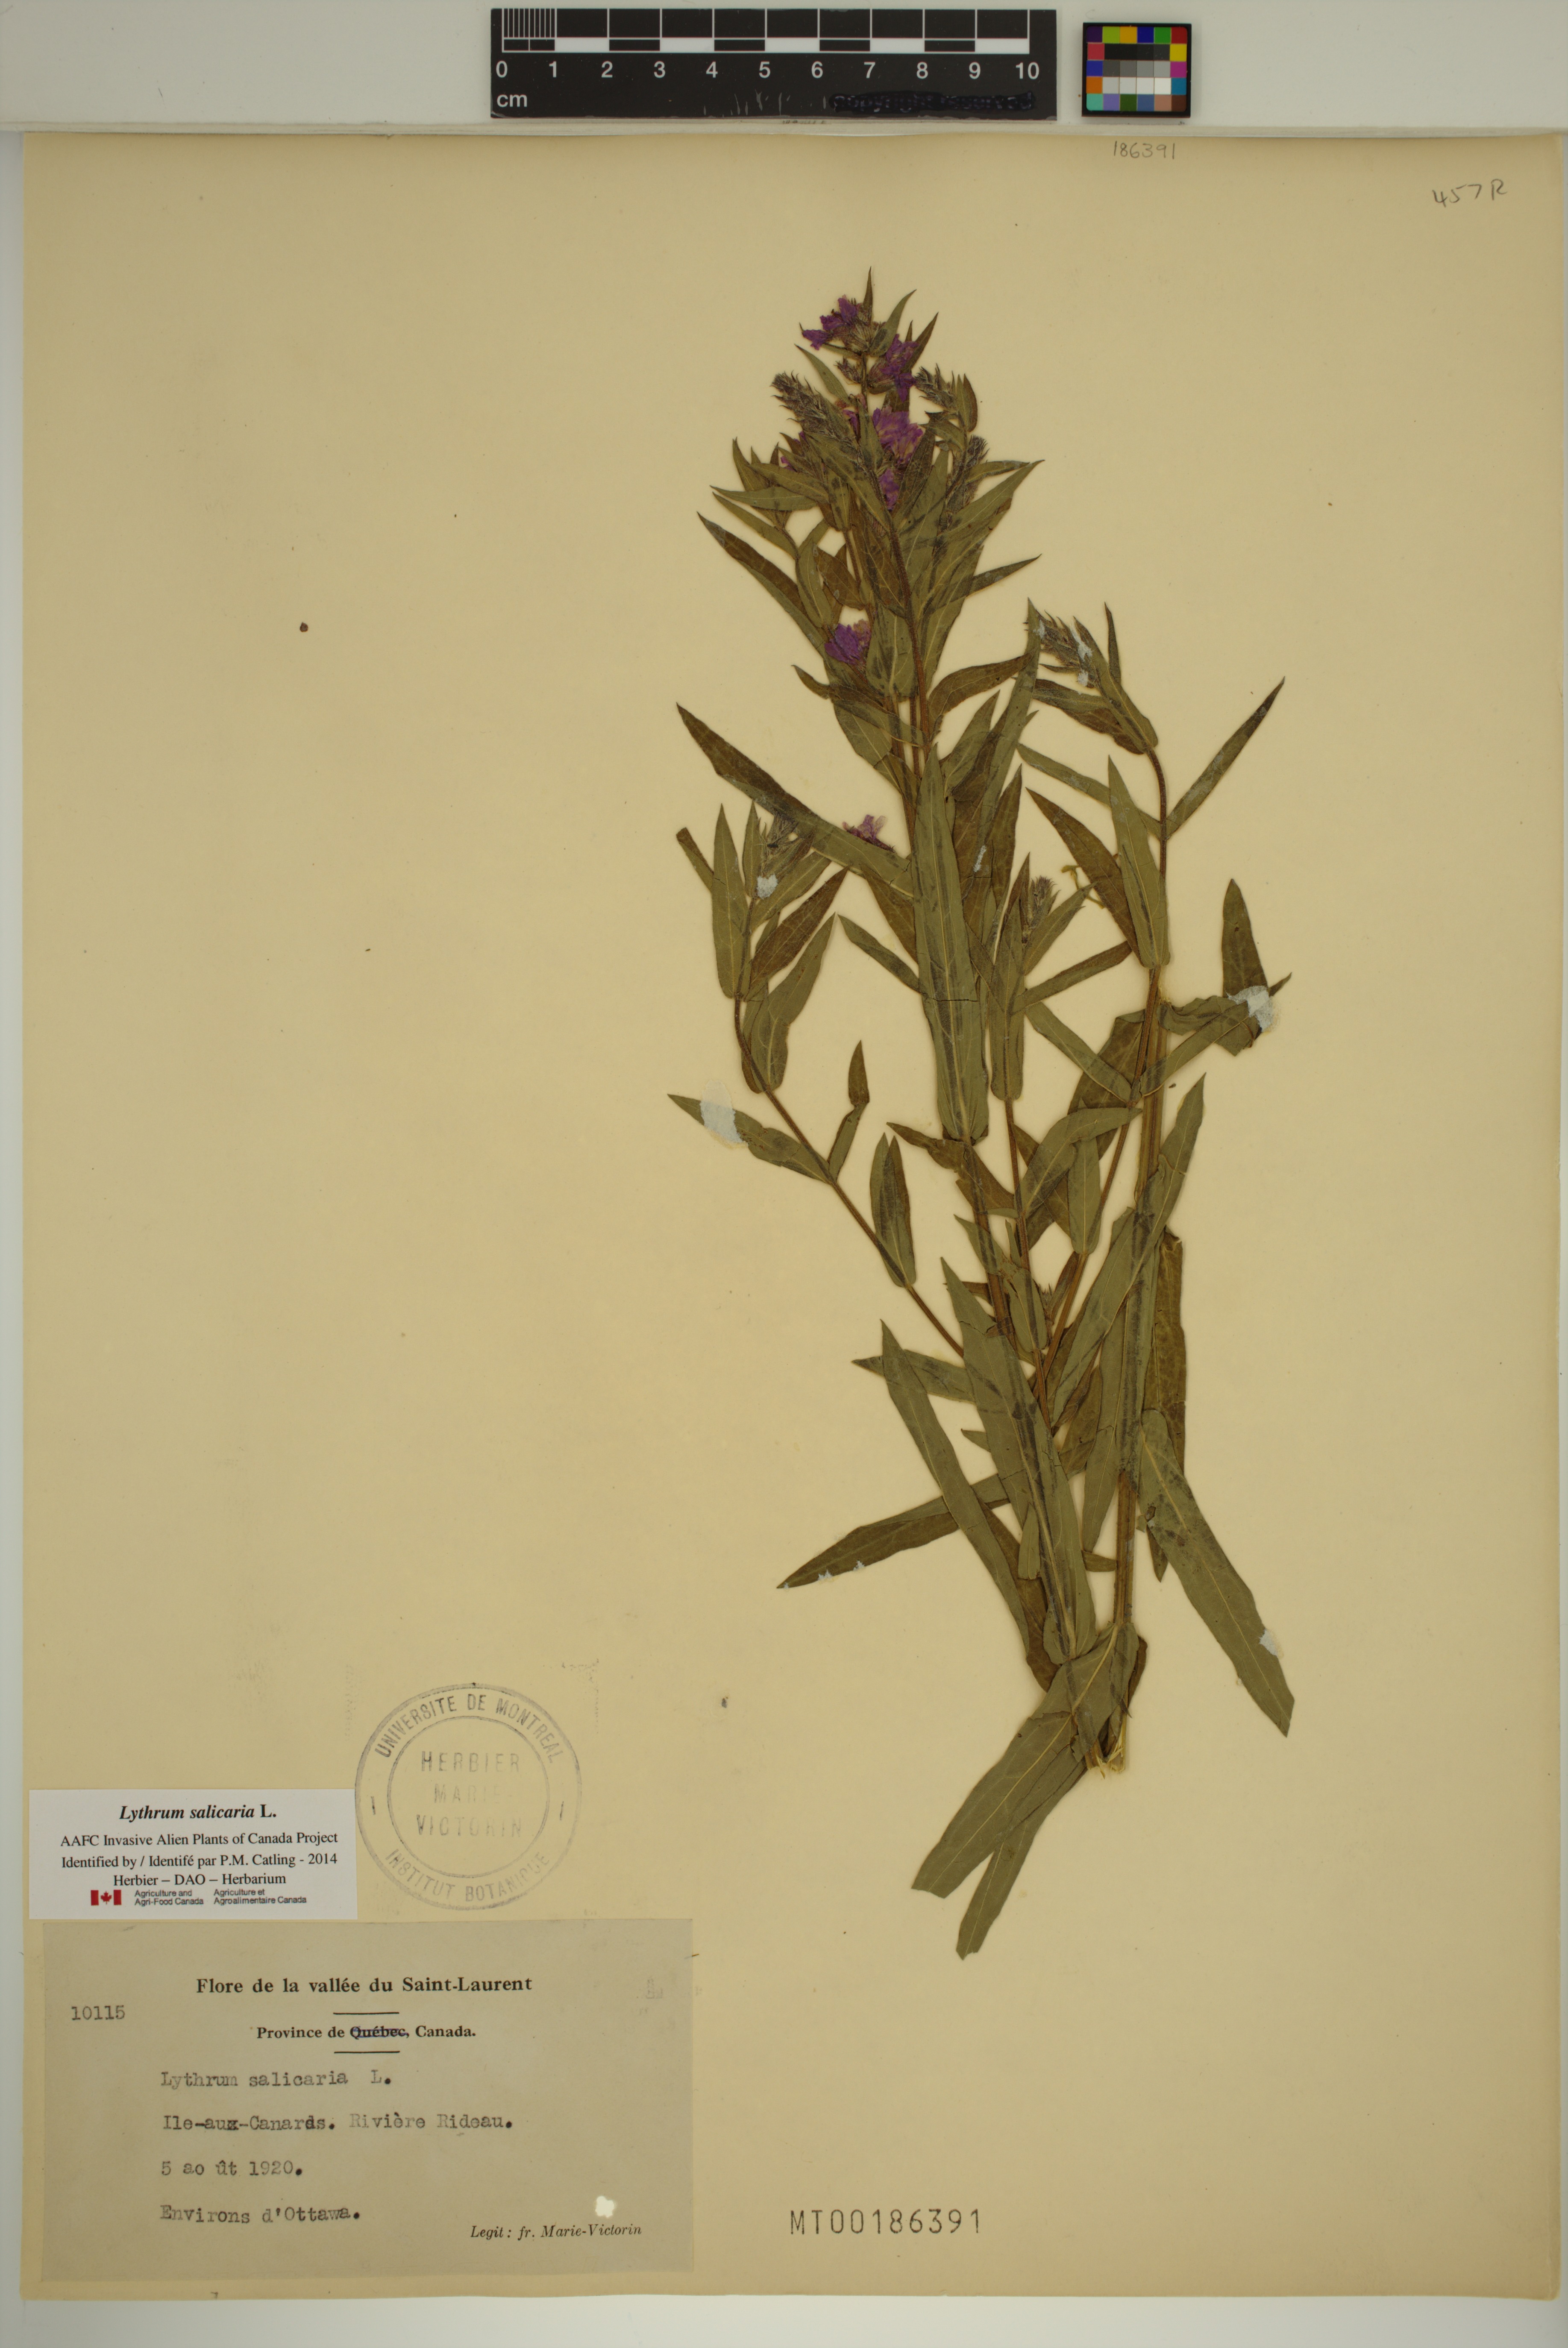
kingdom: Plantae
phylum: Tracheophyta
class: Magnoliopsida
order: Myrtales
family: Lythraceae
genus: Lythrum
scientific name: Lythrum salicaria
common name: Purple loosestrife
